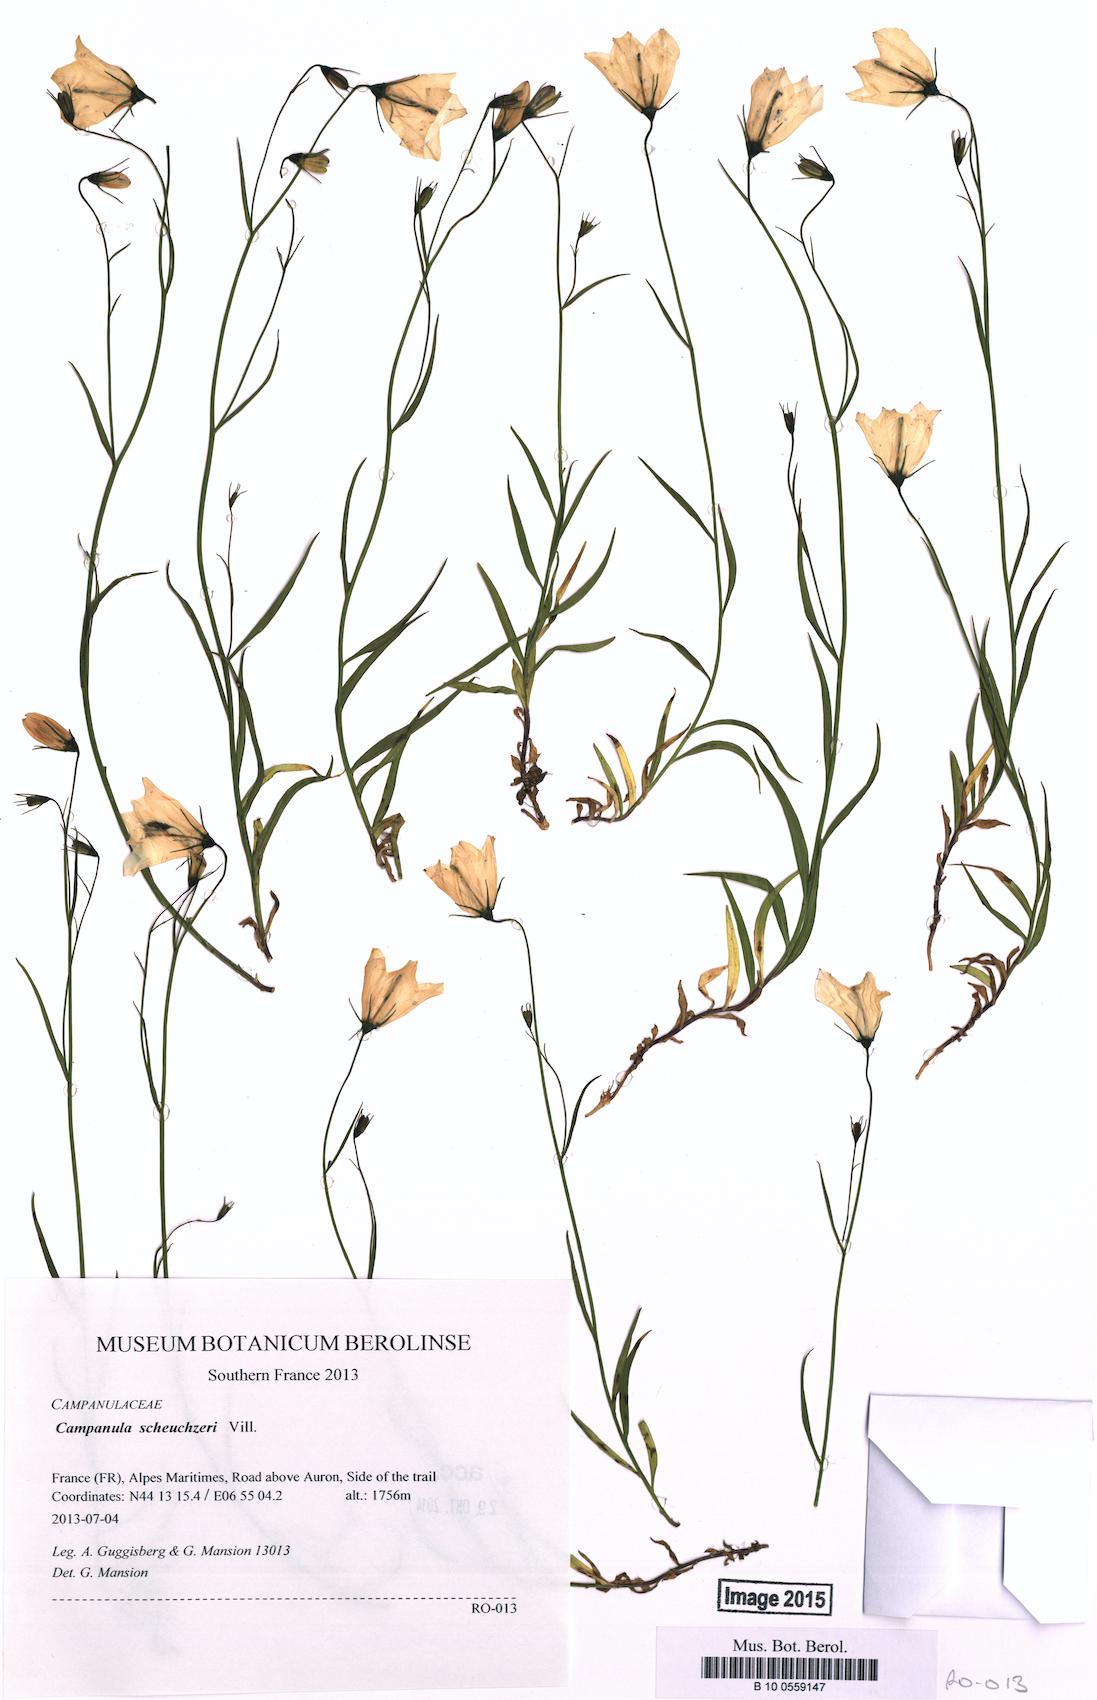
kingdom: Plantae
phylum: Tracheophyta
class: Magnoliopsida
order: Asterales
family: Campanulaceae
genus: Campanula
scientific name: Campanula scheuchzeri
